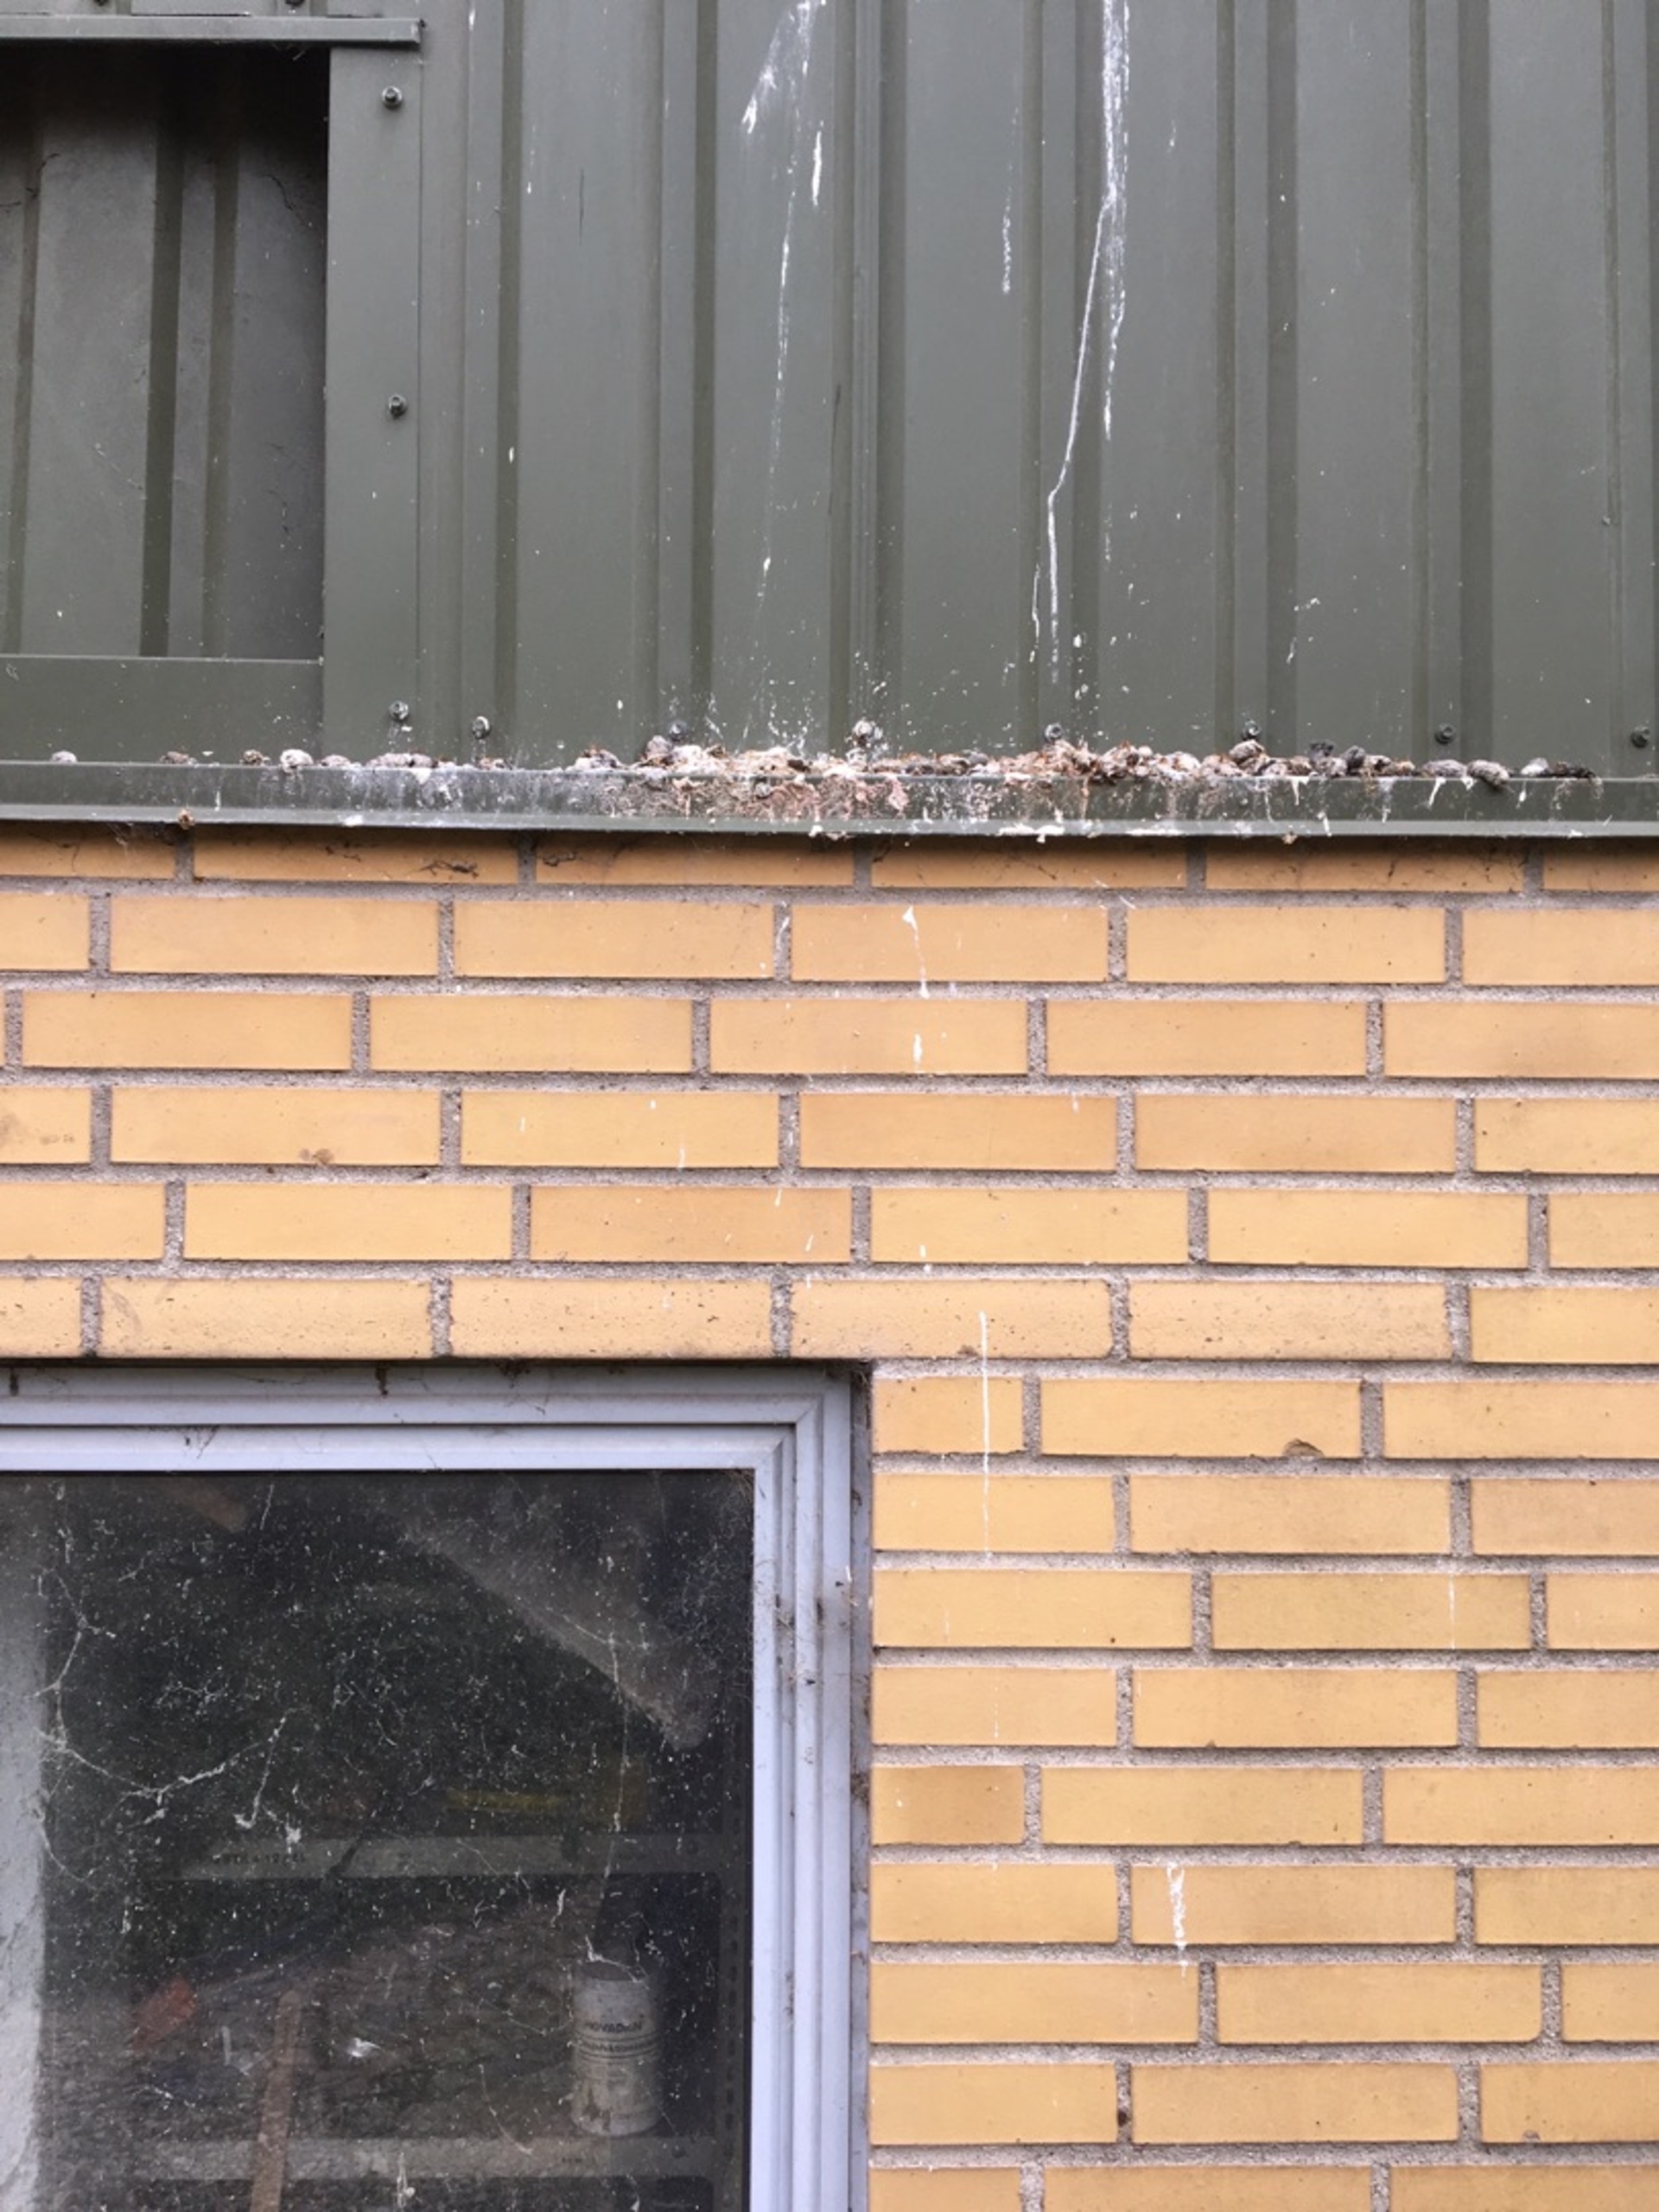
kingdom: Animalia
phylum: Chordata
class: Aves
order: Falconiformes
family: Falconidae
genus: Falco
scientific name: Falco tinnunculus
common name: Tårnfalk
